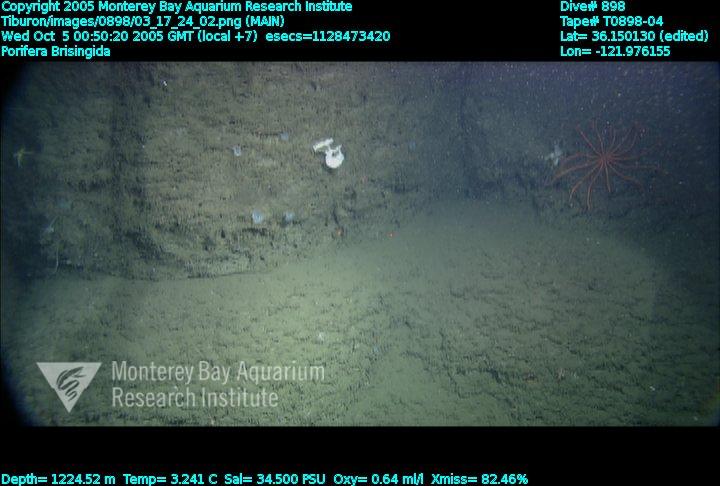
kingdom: Animalia
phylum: Porifera
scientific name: Porifera
